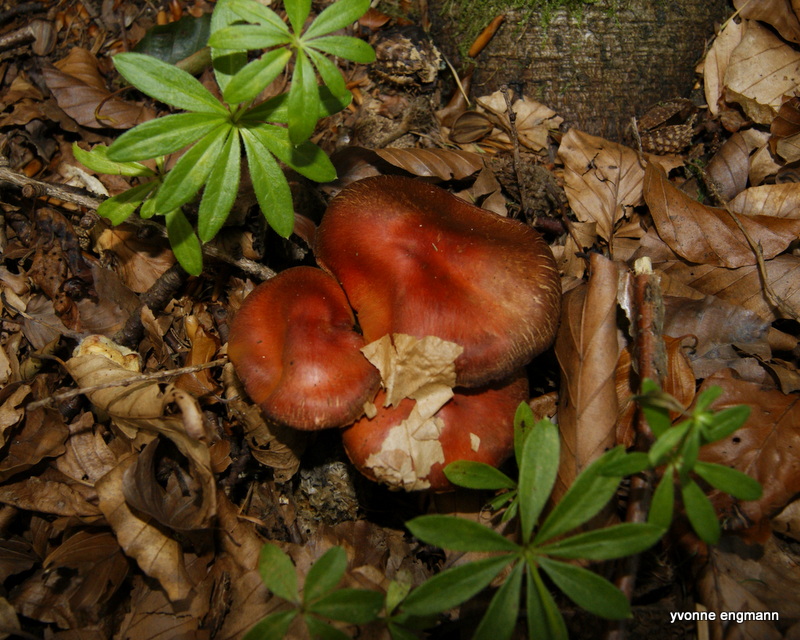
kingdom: Fungi
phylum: Basidiomycota
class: Agaricomycetes
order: Agaricales
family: Cortinariaceae
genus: Cortinarius
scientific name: Cortinarius cinnabarinus
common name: cinnober-slørhat
